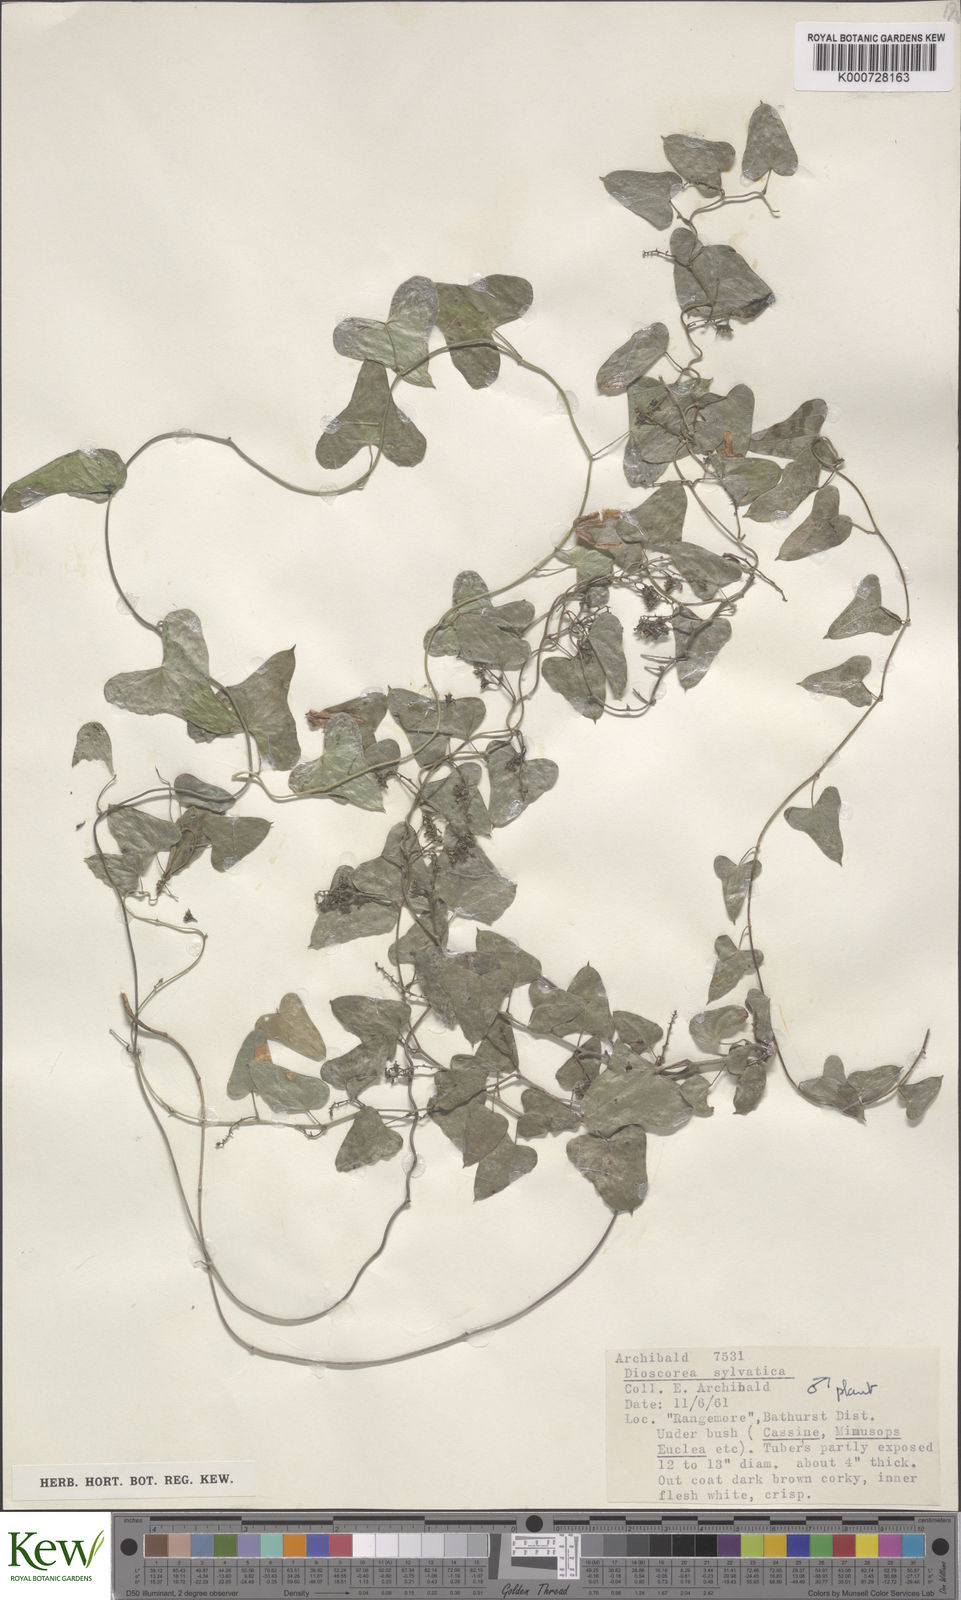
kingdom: Plantae
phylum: Tracheophyta
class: Liliopsida
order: Dioscoreales
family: Dioscoreaceae
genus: Dioscorea
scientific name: Dioscorea sylvatica
